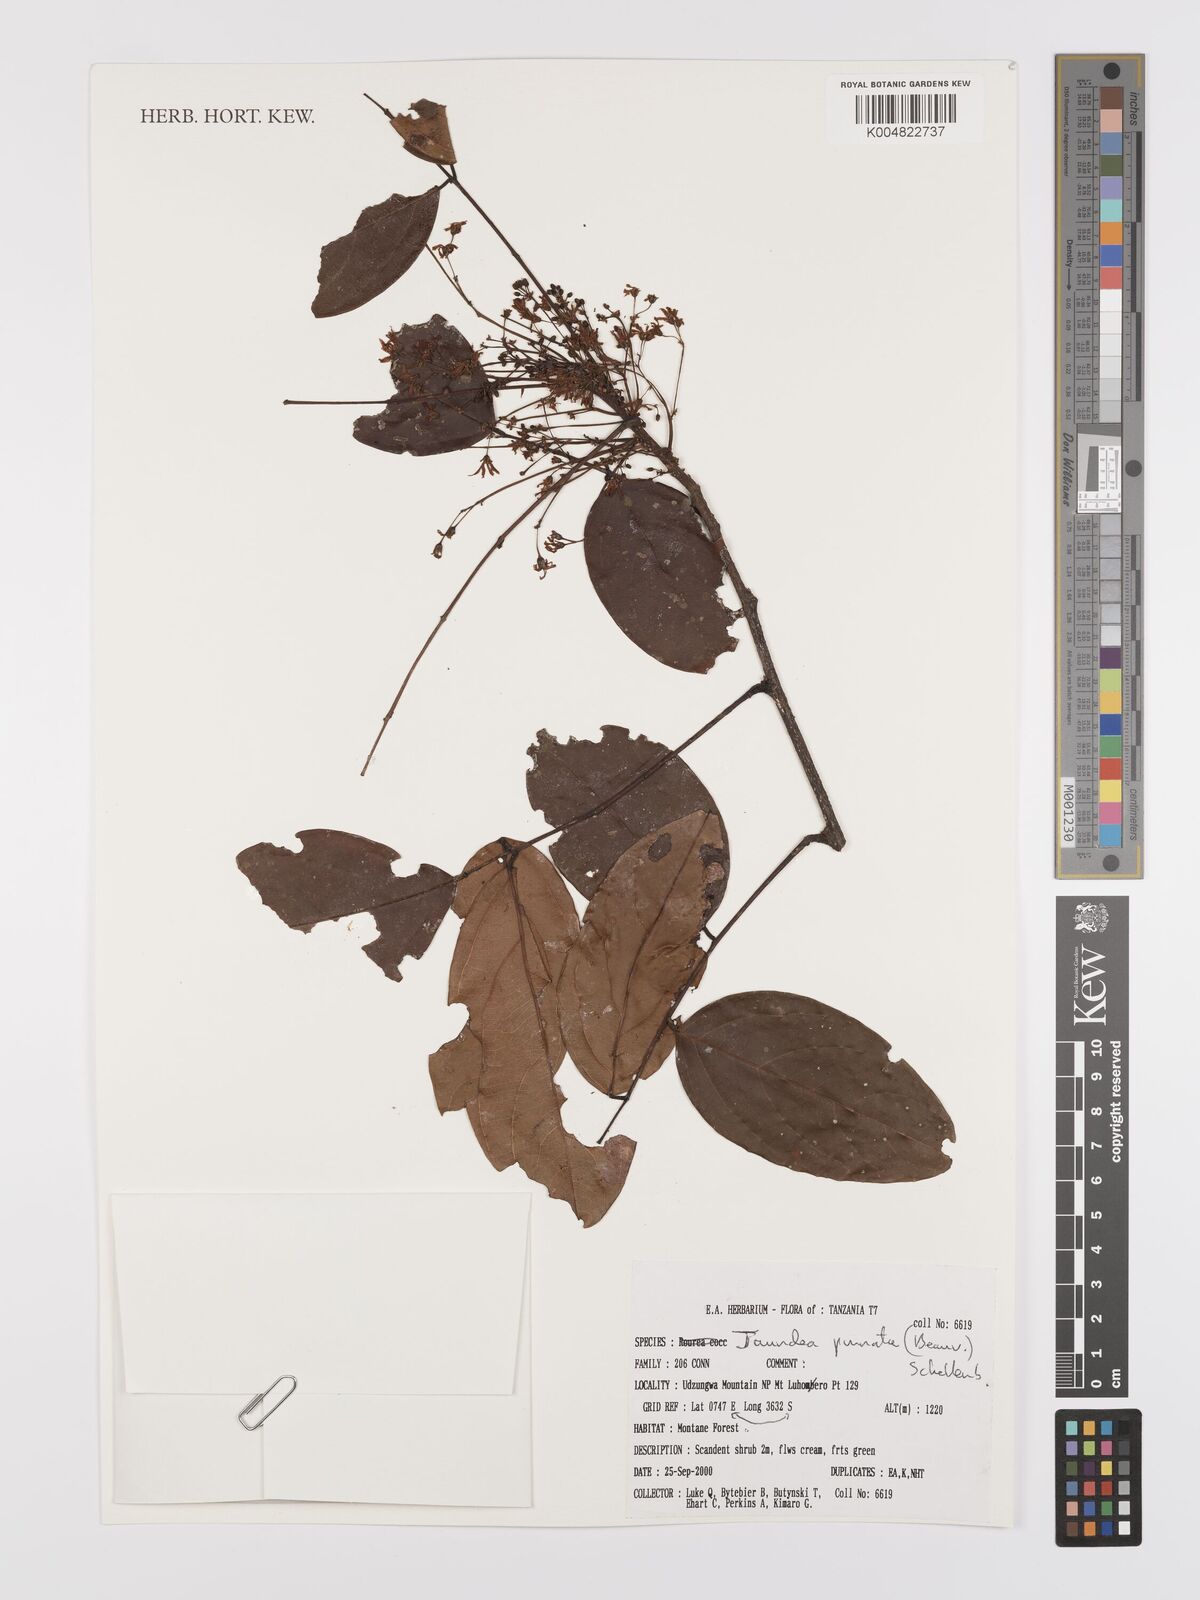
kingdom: Plantae
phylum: Tracheophyta
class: Magnoliopsida
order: Oxalidales
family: Connaraceae
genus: Rourea
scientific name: Rourea pinnata
